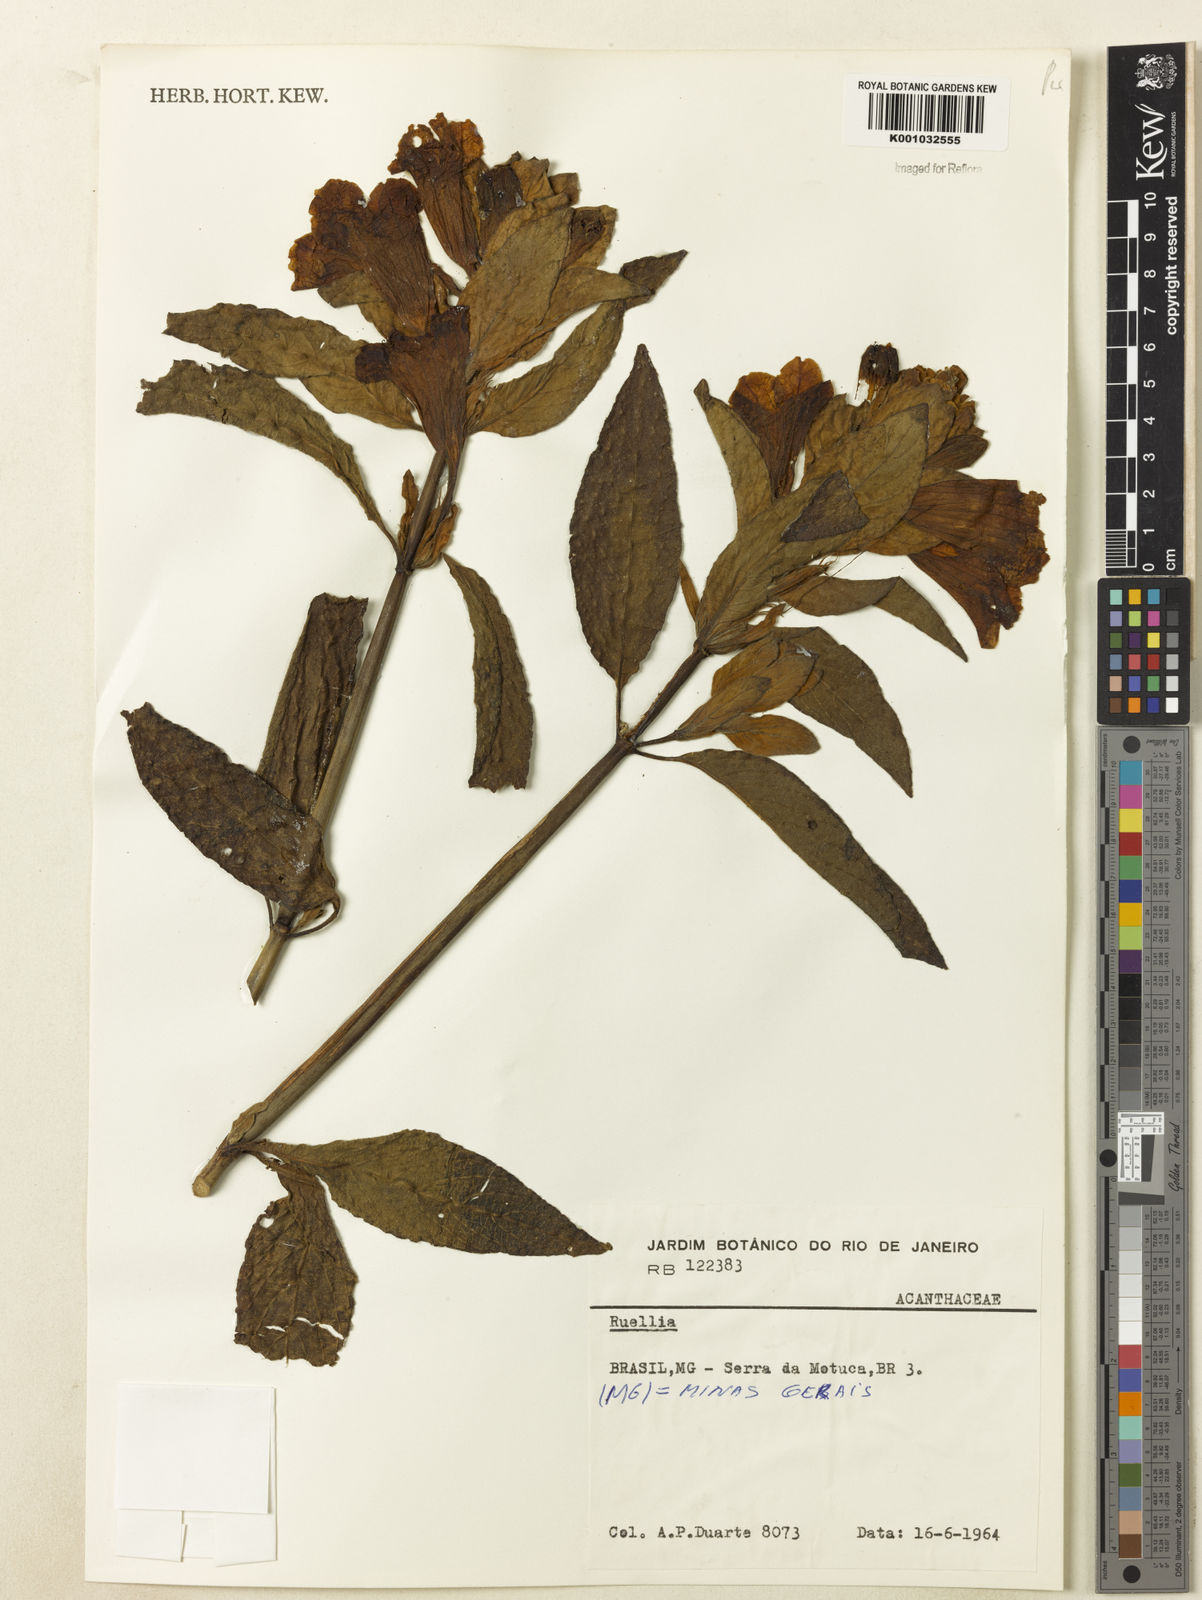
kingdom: Plantae
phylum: Tracheophyta
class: Magnoliopsida
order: Lamiales
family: Acanthaceae
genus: Ruellia
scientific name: Ruellia
